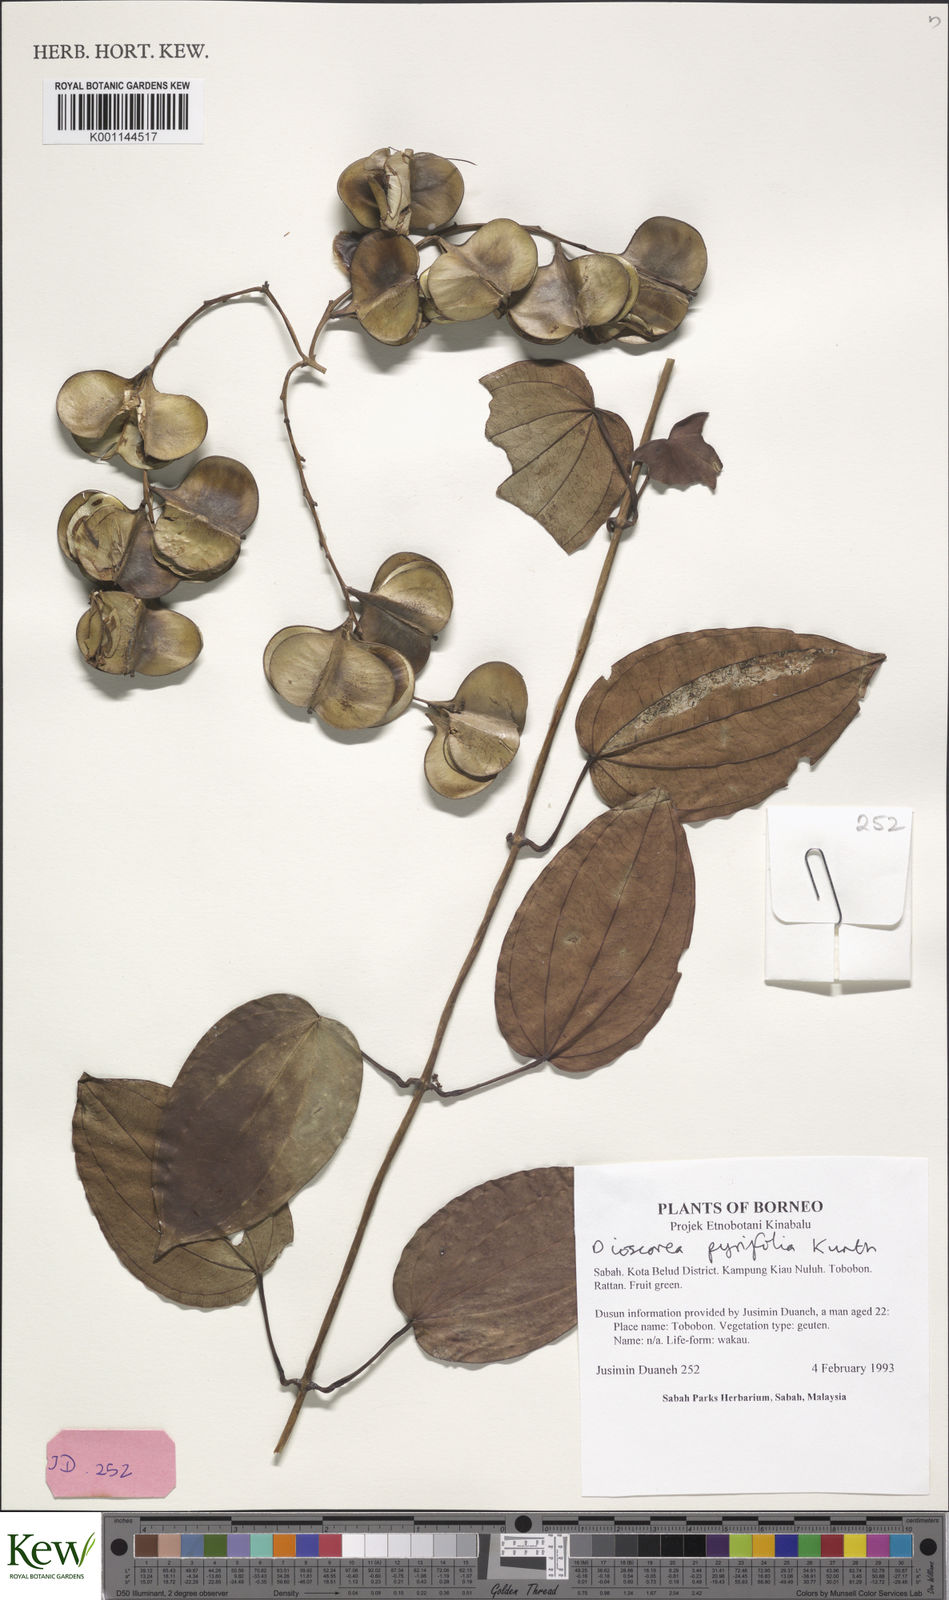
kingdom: Plantae
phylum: Tracheophyta
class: Liliopsida
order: Dioscoreales
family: Dioscoreaceae
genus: Dioscorea
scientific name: Dioscorea pyrifolia
